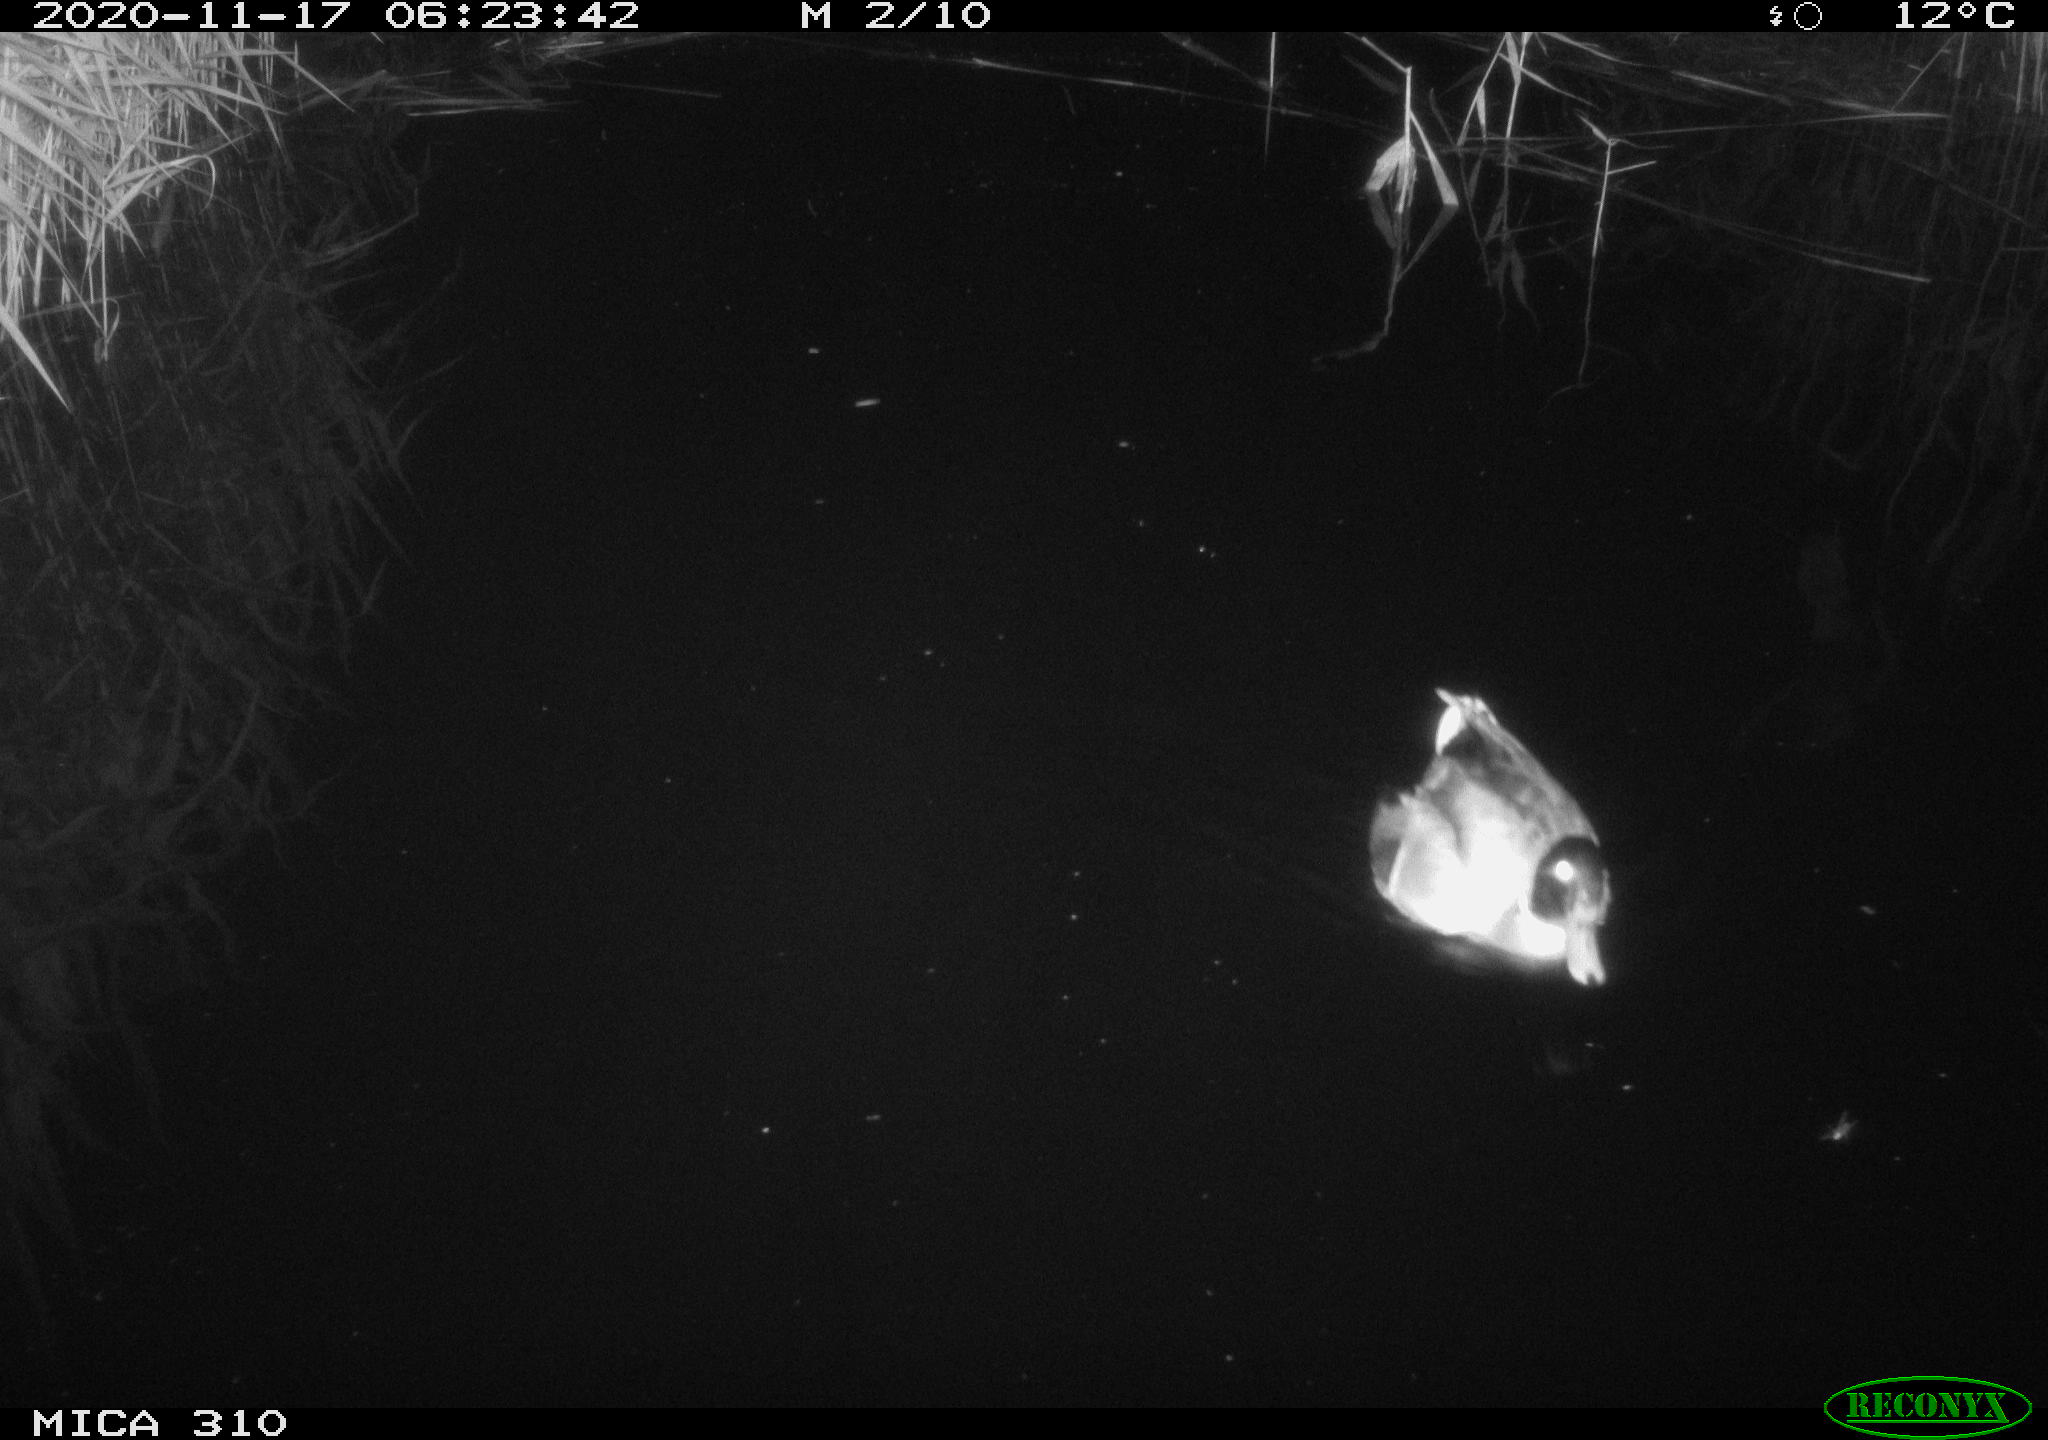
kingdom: Animalia
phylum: Chordata
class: Aves
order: Anseriformes
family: Anatidae
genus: Anas
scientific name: Anas platyrhynchos
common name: Mallard
